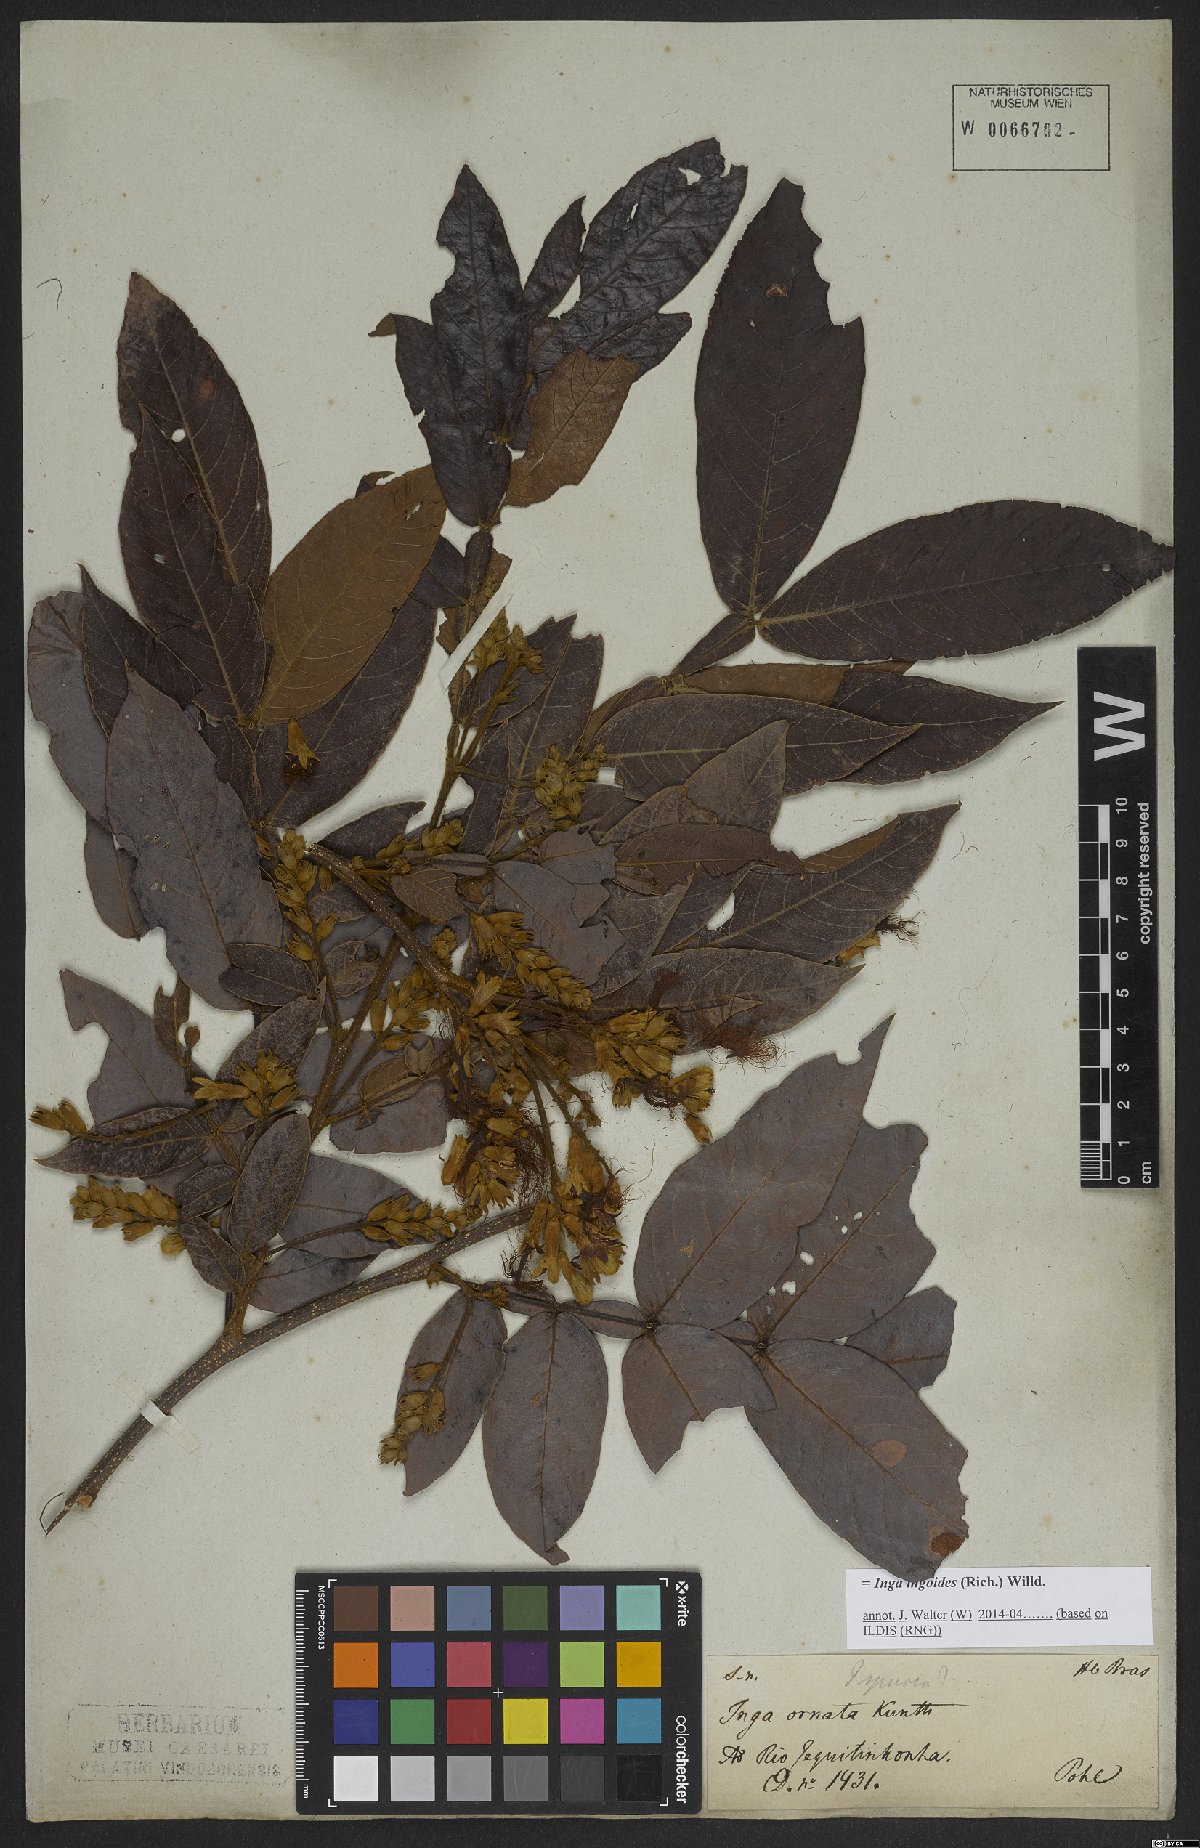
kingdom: Plantae
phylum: Tracheophyta
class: Magnoliopsida
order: Fabales
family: Fabaceae
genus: Inga
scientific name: Inga ingoides
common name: Spanish ash
